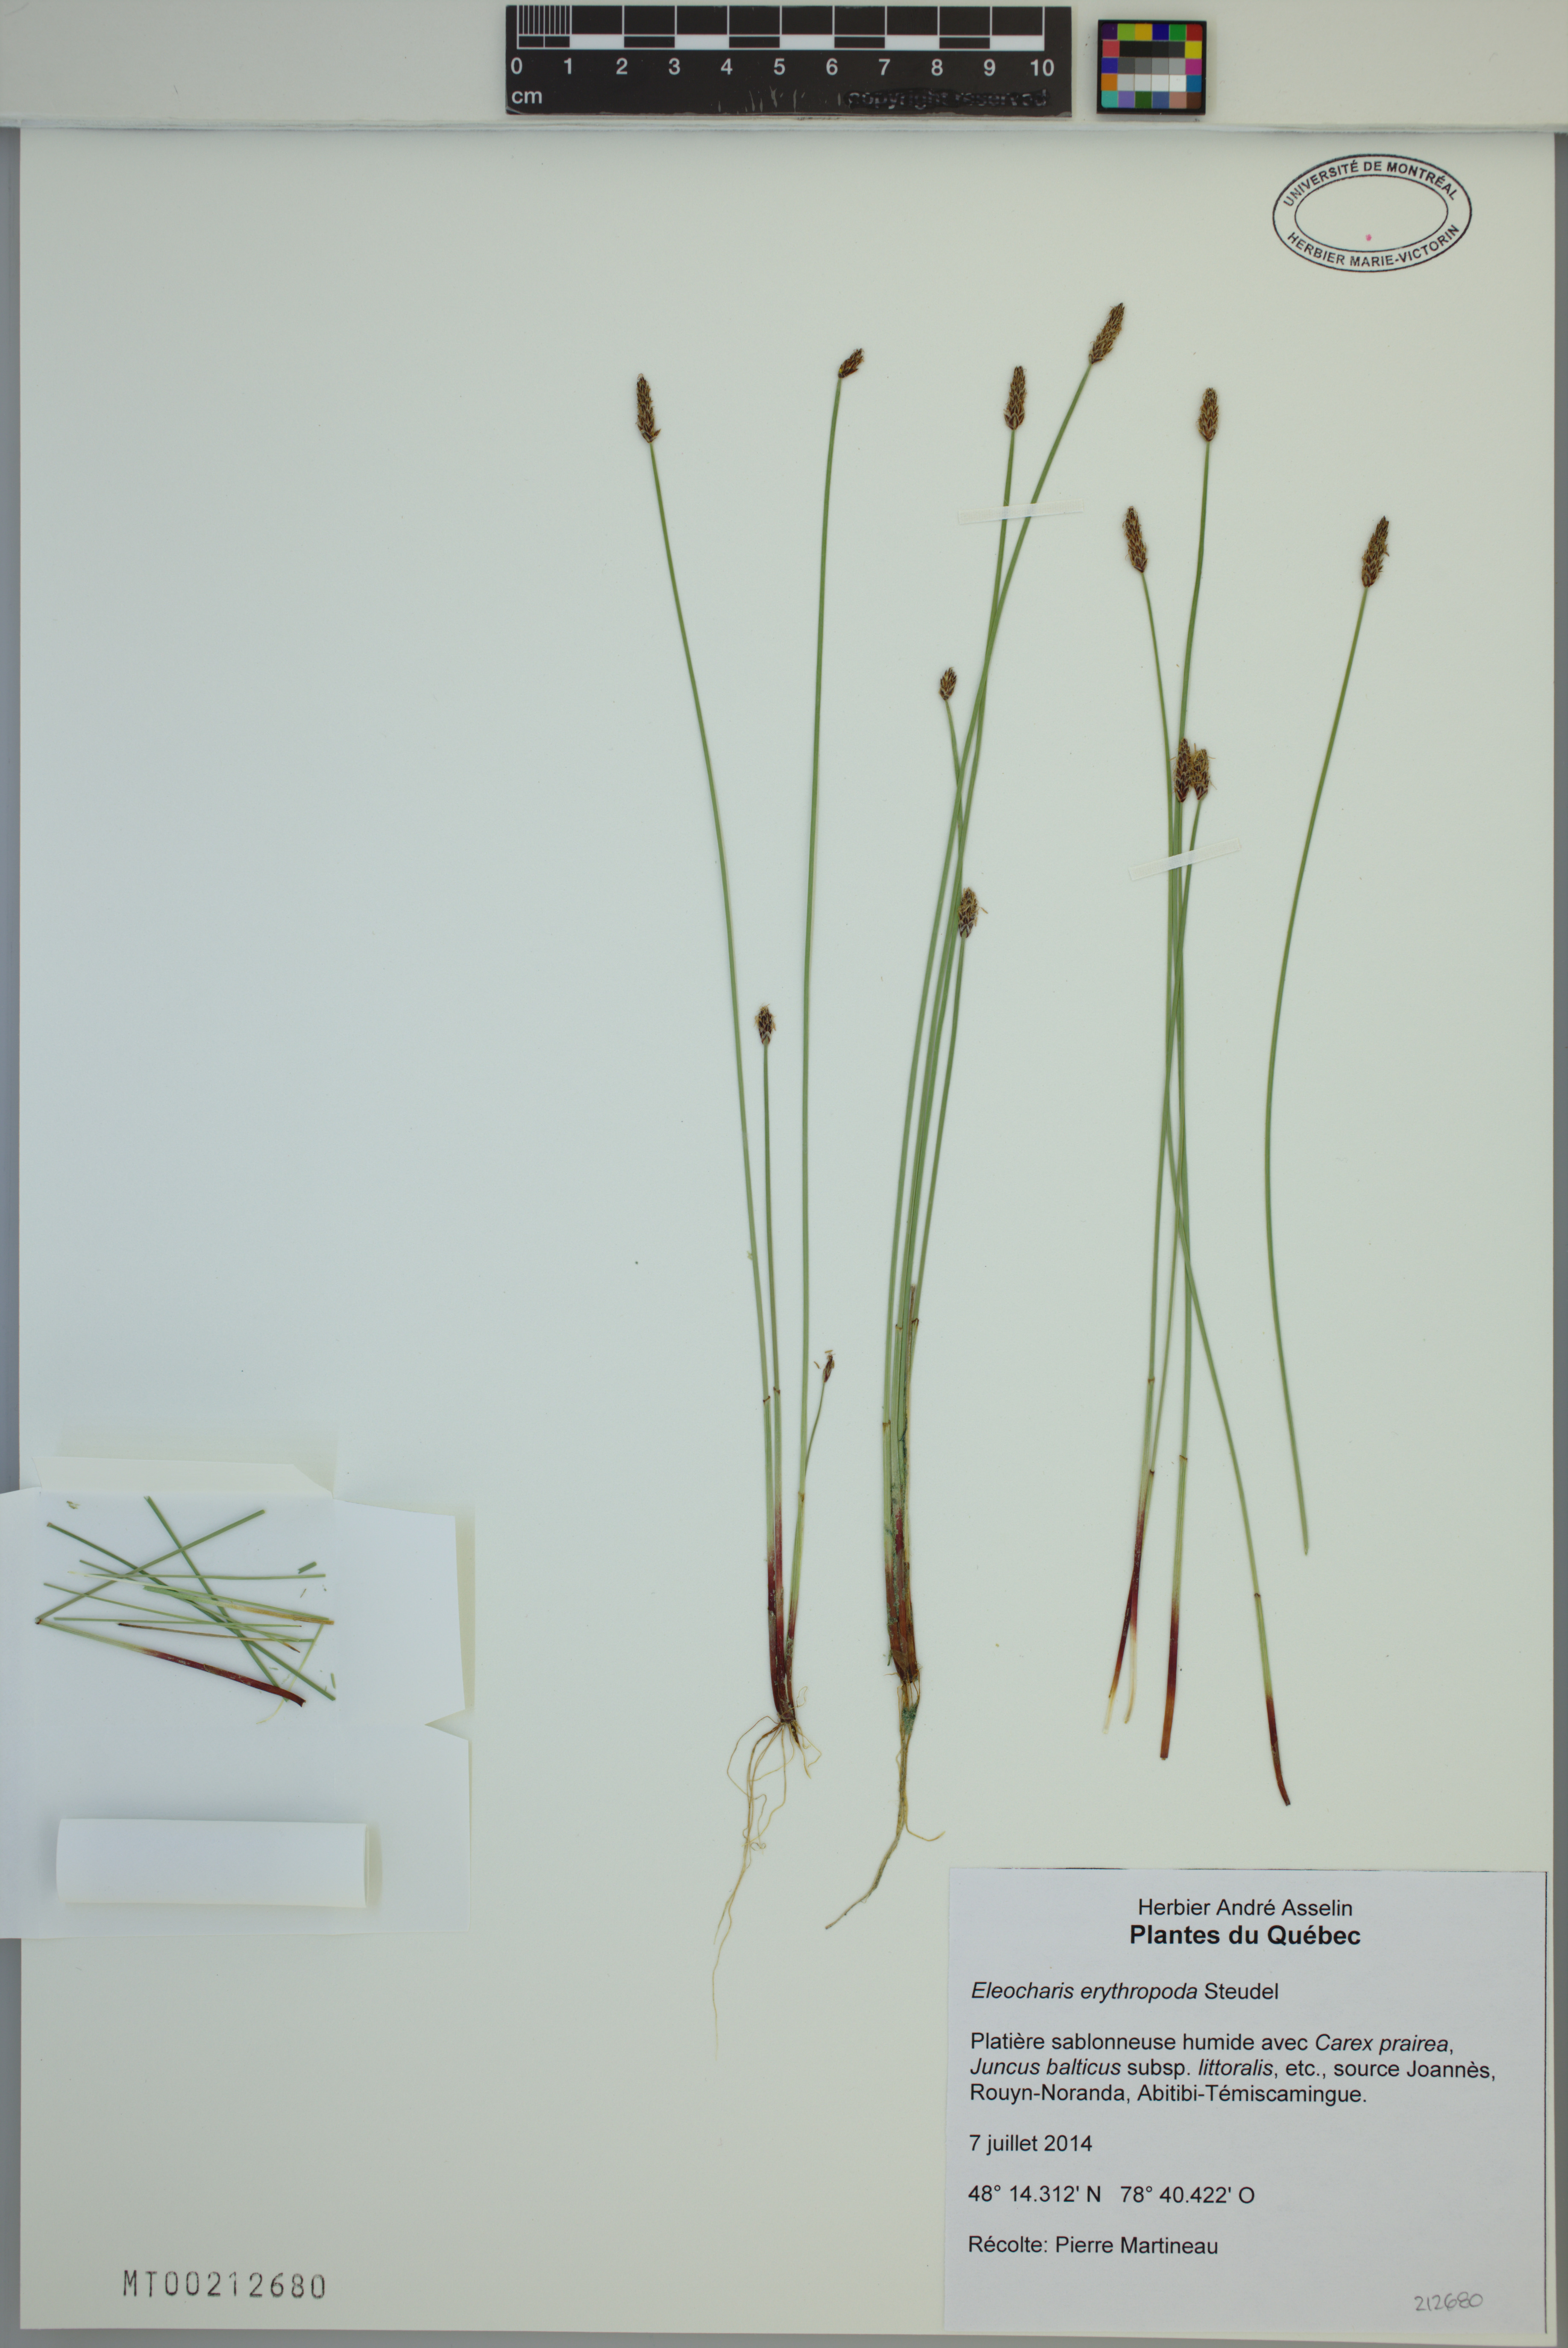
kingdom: Plantae
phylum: Tracheophyta
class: Liliopsida
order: Poales
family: Cyperaceae
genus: Eleocharis
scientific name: Eleocharis erythropoda
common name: Bald spikerush
